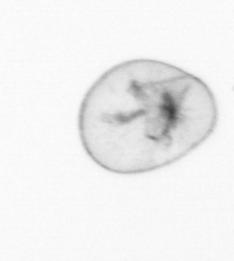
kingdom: Chromista
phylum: Myzozoa
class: Dinophyceae
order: Noctilucales
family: Noctilucaceae
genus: Noctiluca
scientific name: Noctiluca scintillans
